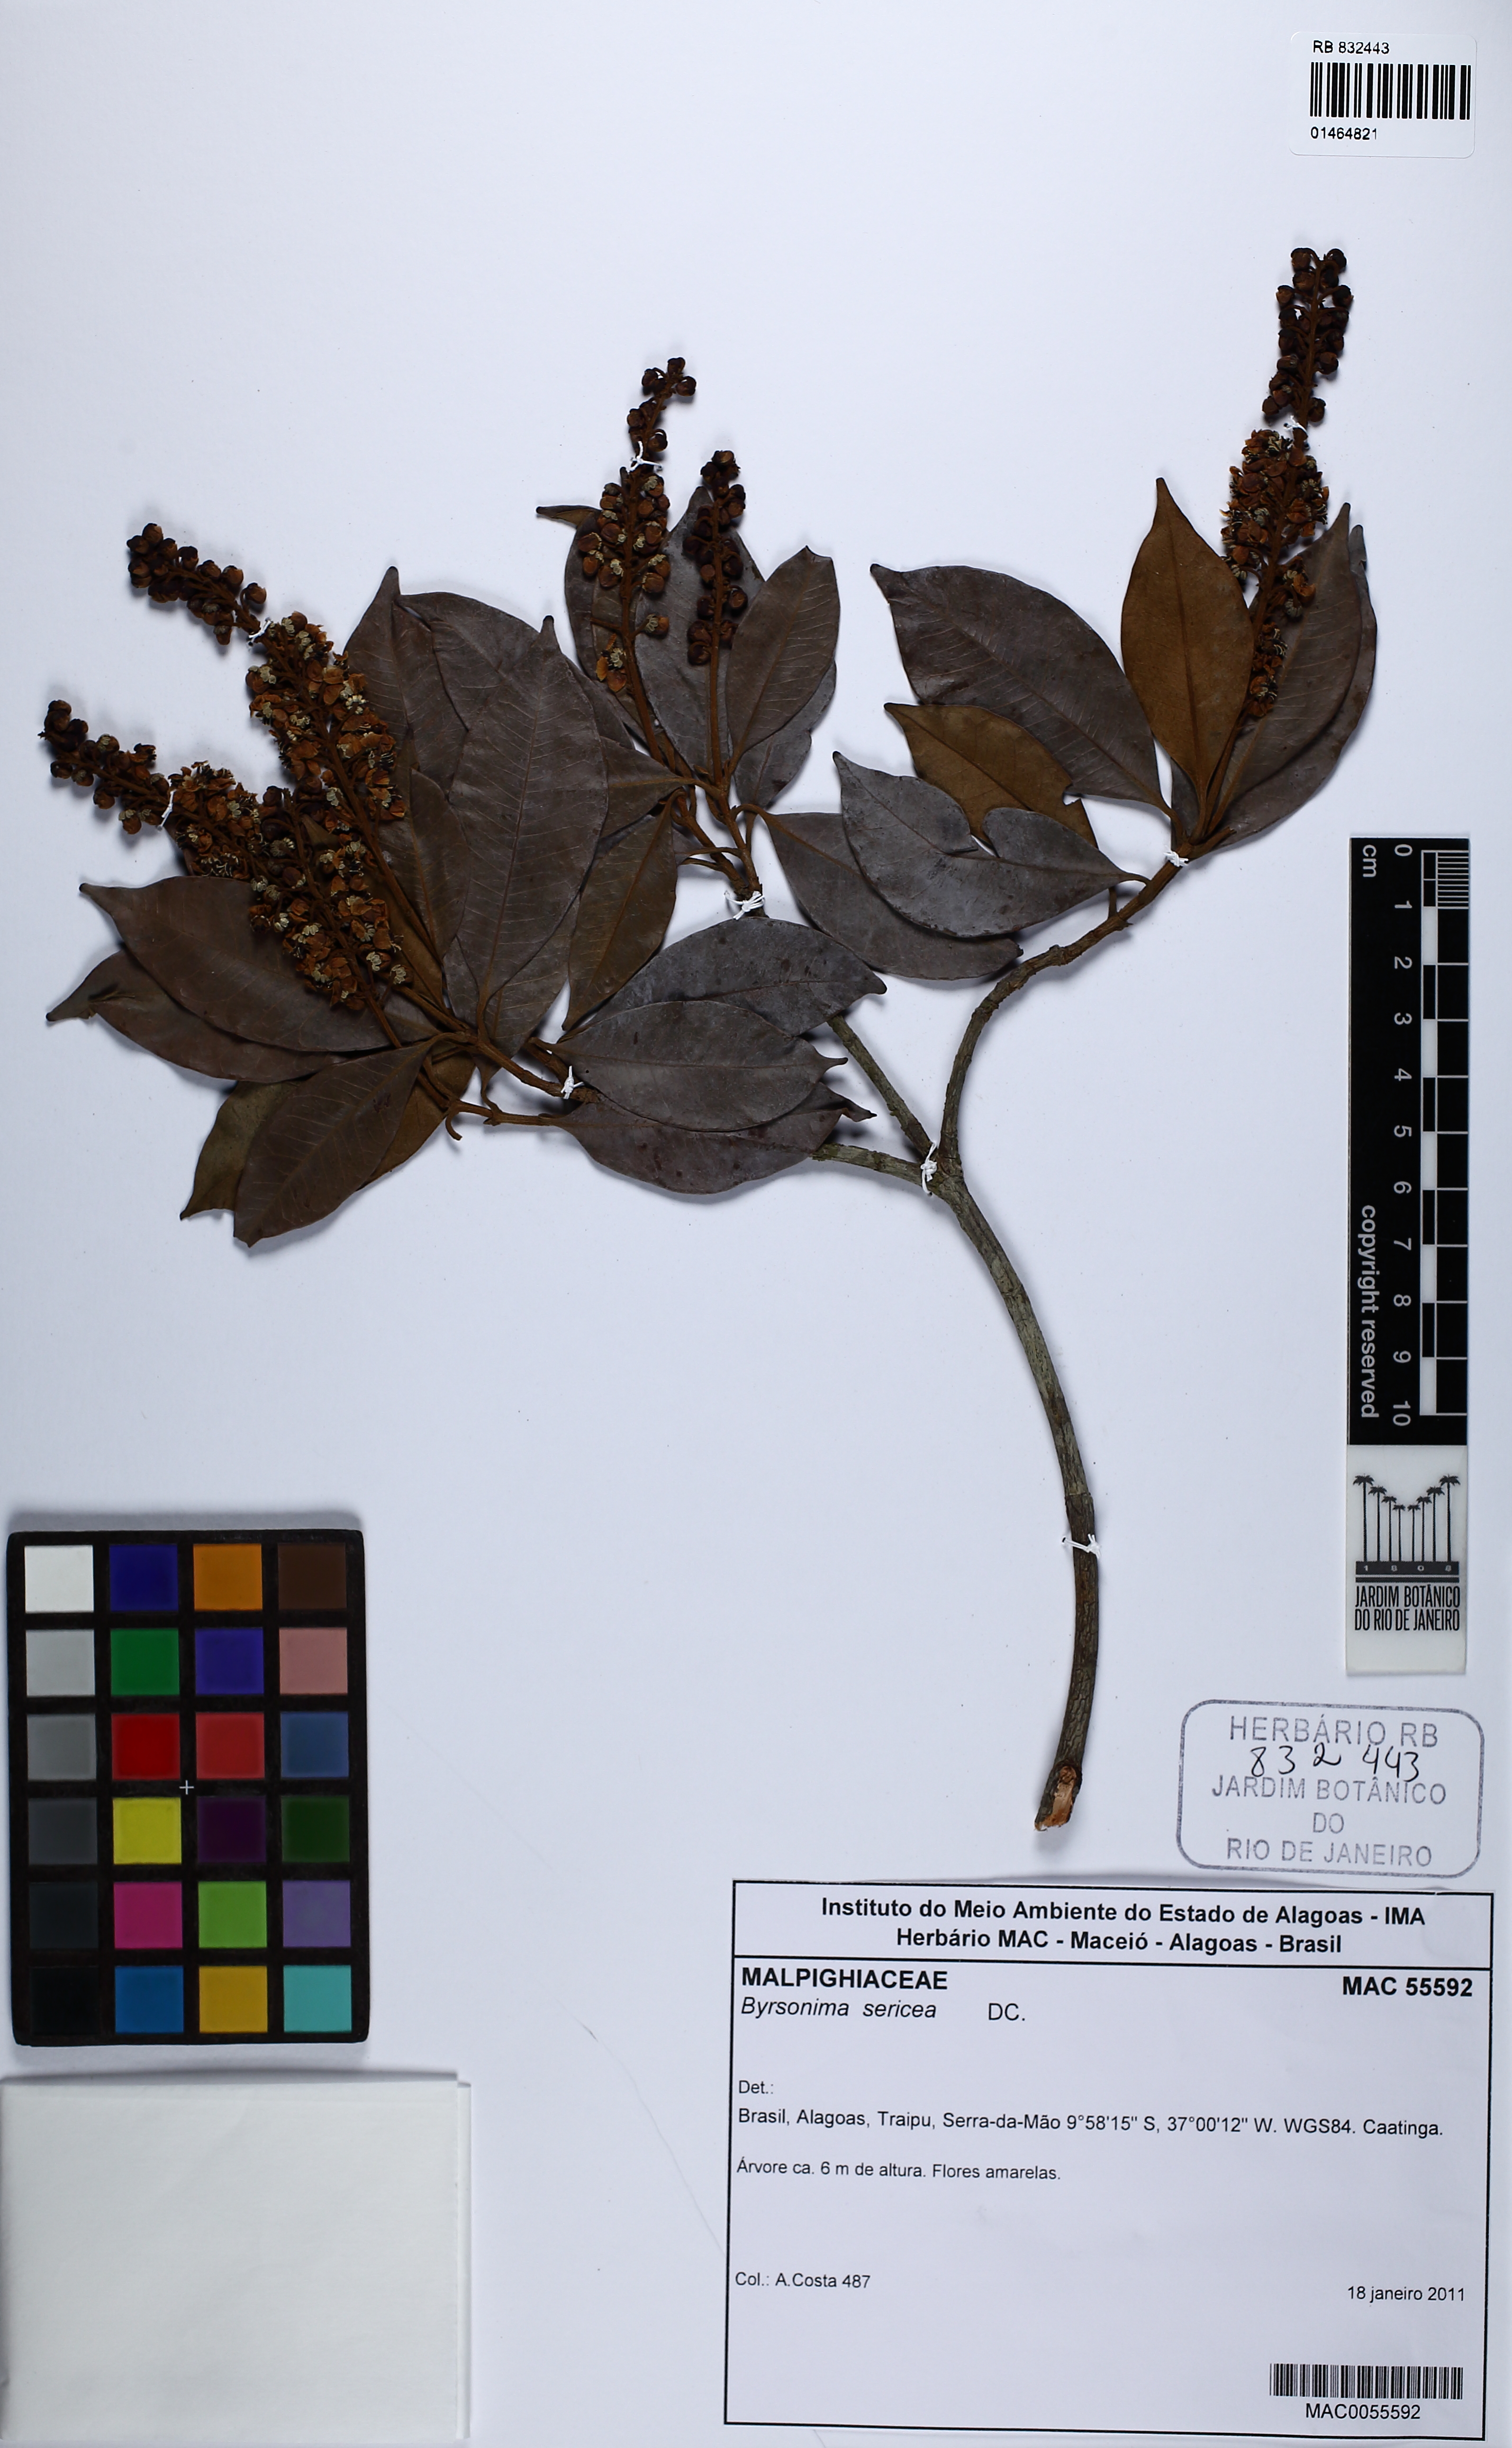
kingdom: Plantae
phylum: Tracheophyta
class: Magnoliopsida
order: Malpighiales
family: Malpighiaceae
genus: Byrsonima
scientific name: Byrsonima sericea
